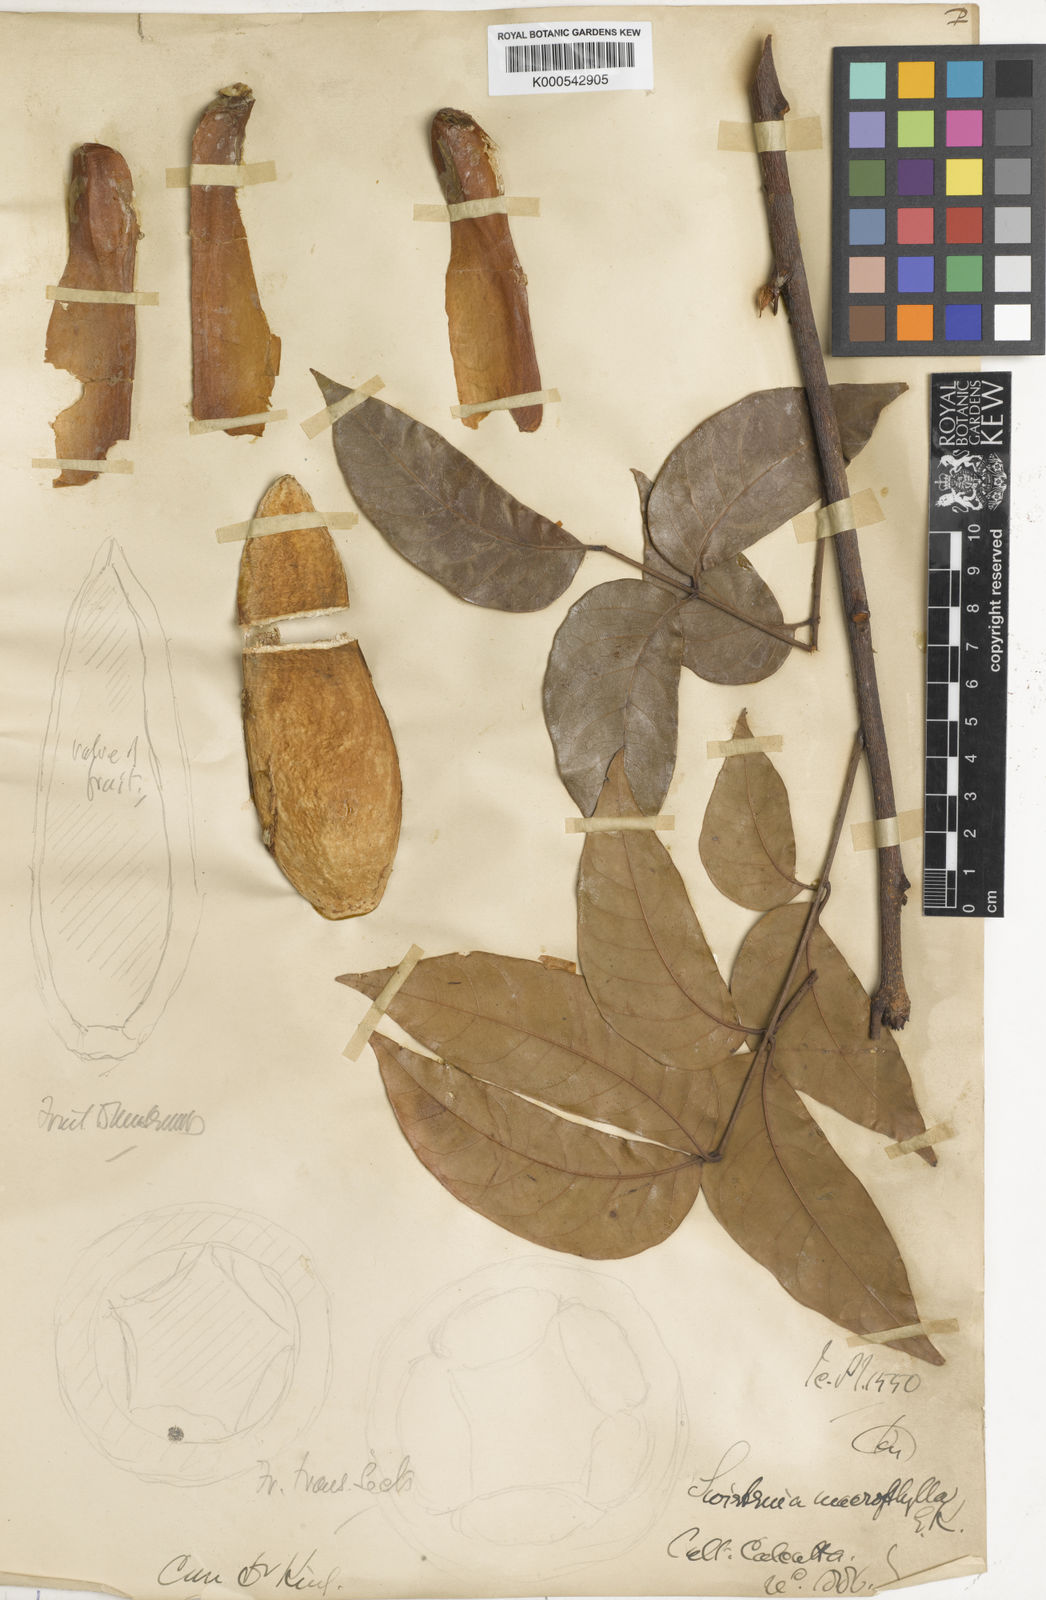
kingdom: Plantae
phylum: Tracheophyta
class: Magnoliopsida
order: Sapindales
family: Meliaceae
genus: Swietenia
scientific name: Swietenia macrophylla
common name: Honduras mahogany
